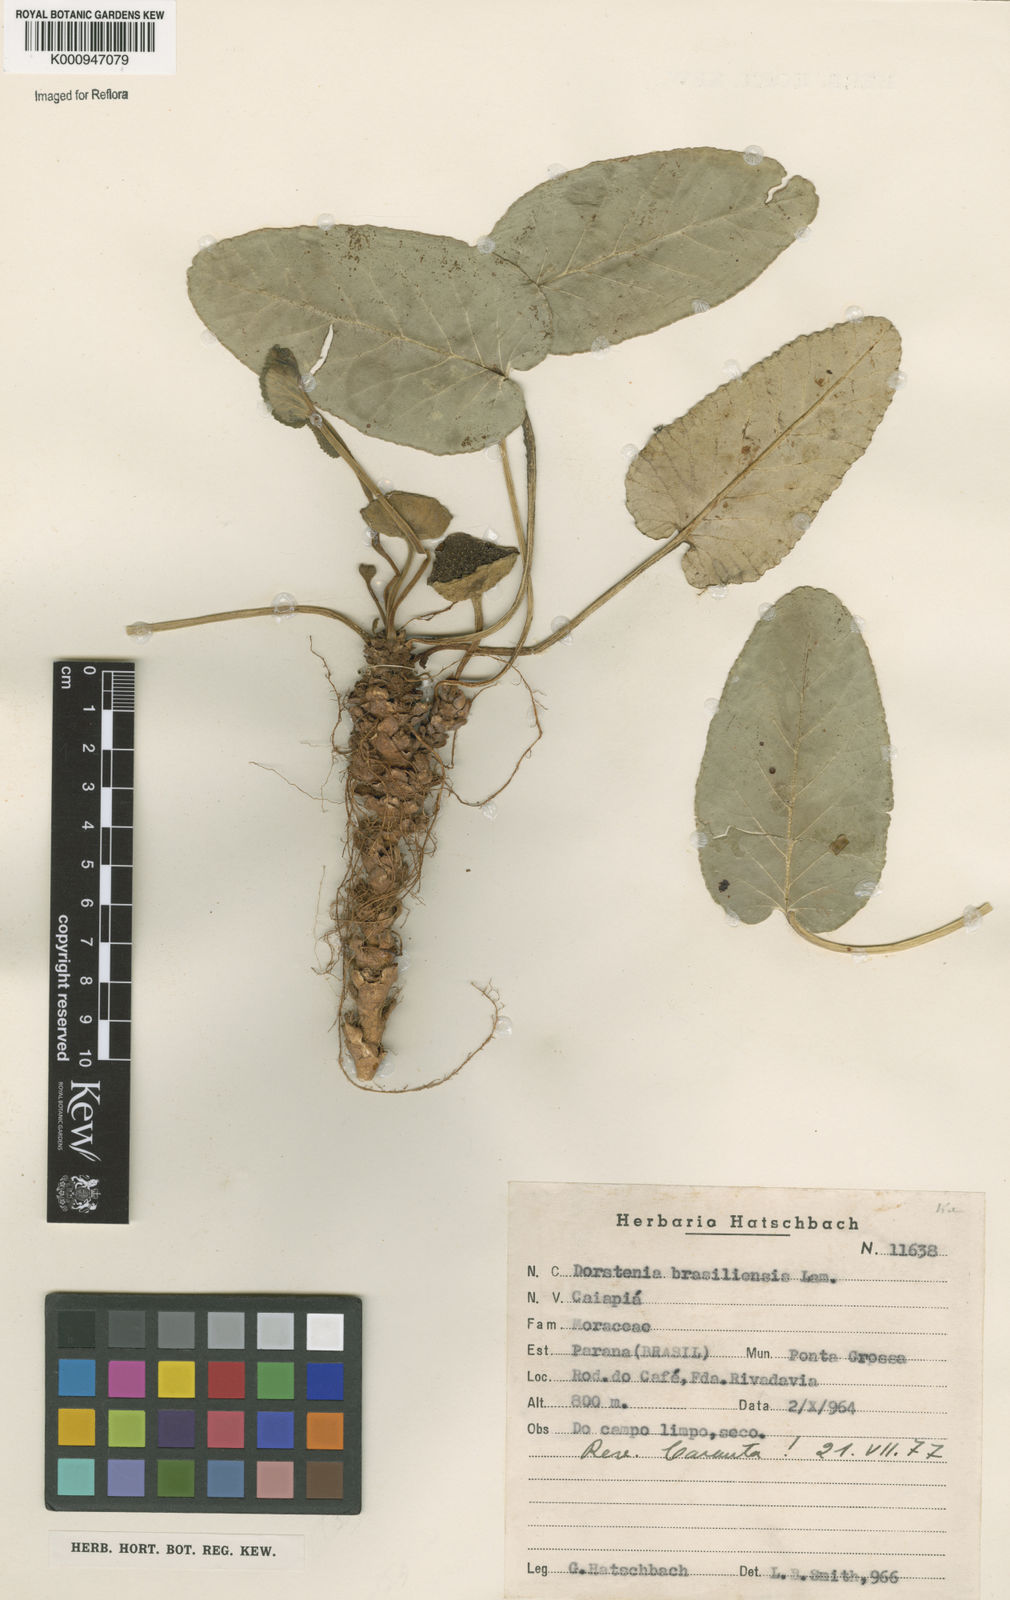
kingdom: Plantae
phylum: Tracheophyta
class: Magnoliopsida
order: Rosales
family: Moraceae
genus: Dorstenia
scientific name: Dorstenia brasiliensis
